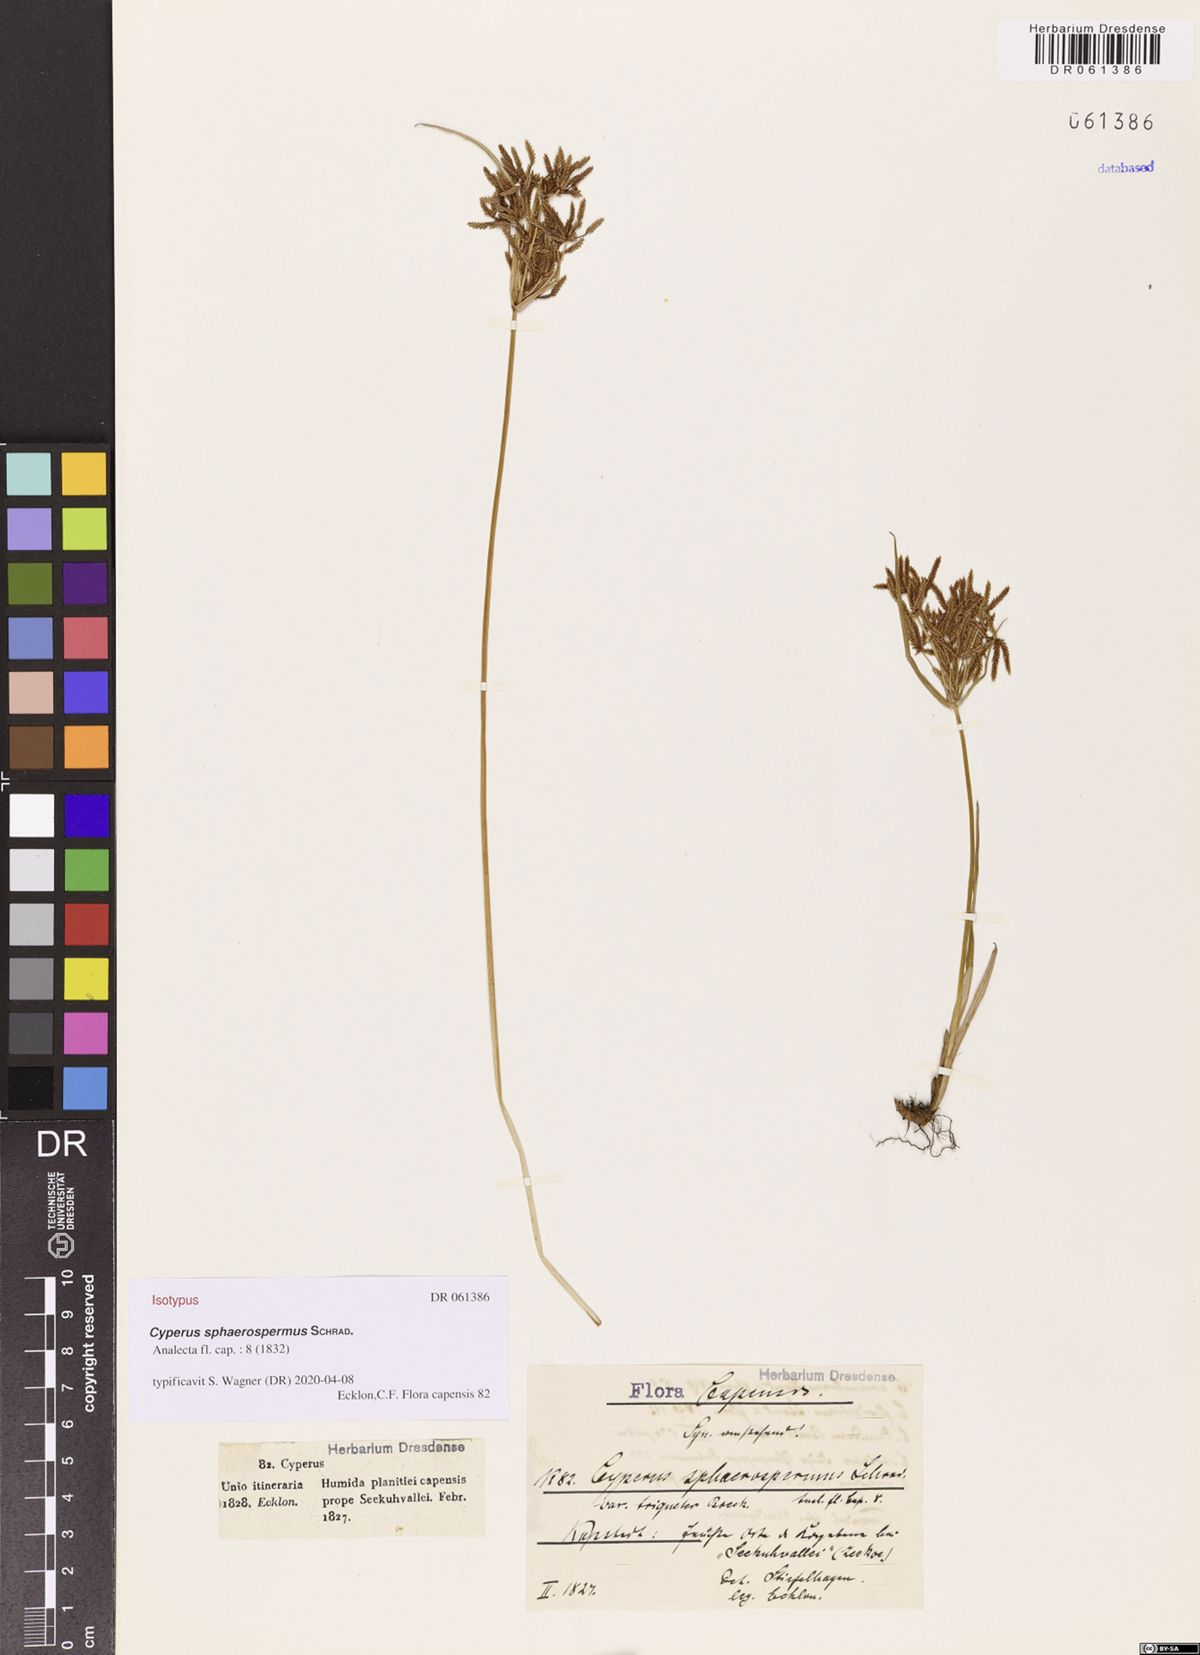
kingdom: Plantae
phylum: Tracheophyta
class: Liliopsida
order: Poales
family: Cyperaceae
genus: Cyperus
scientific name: Cyperus sphaerospermus
